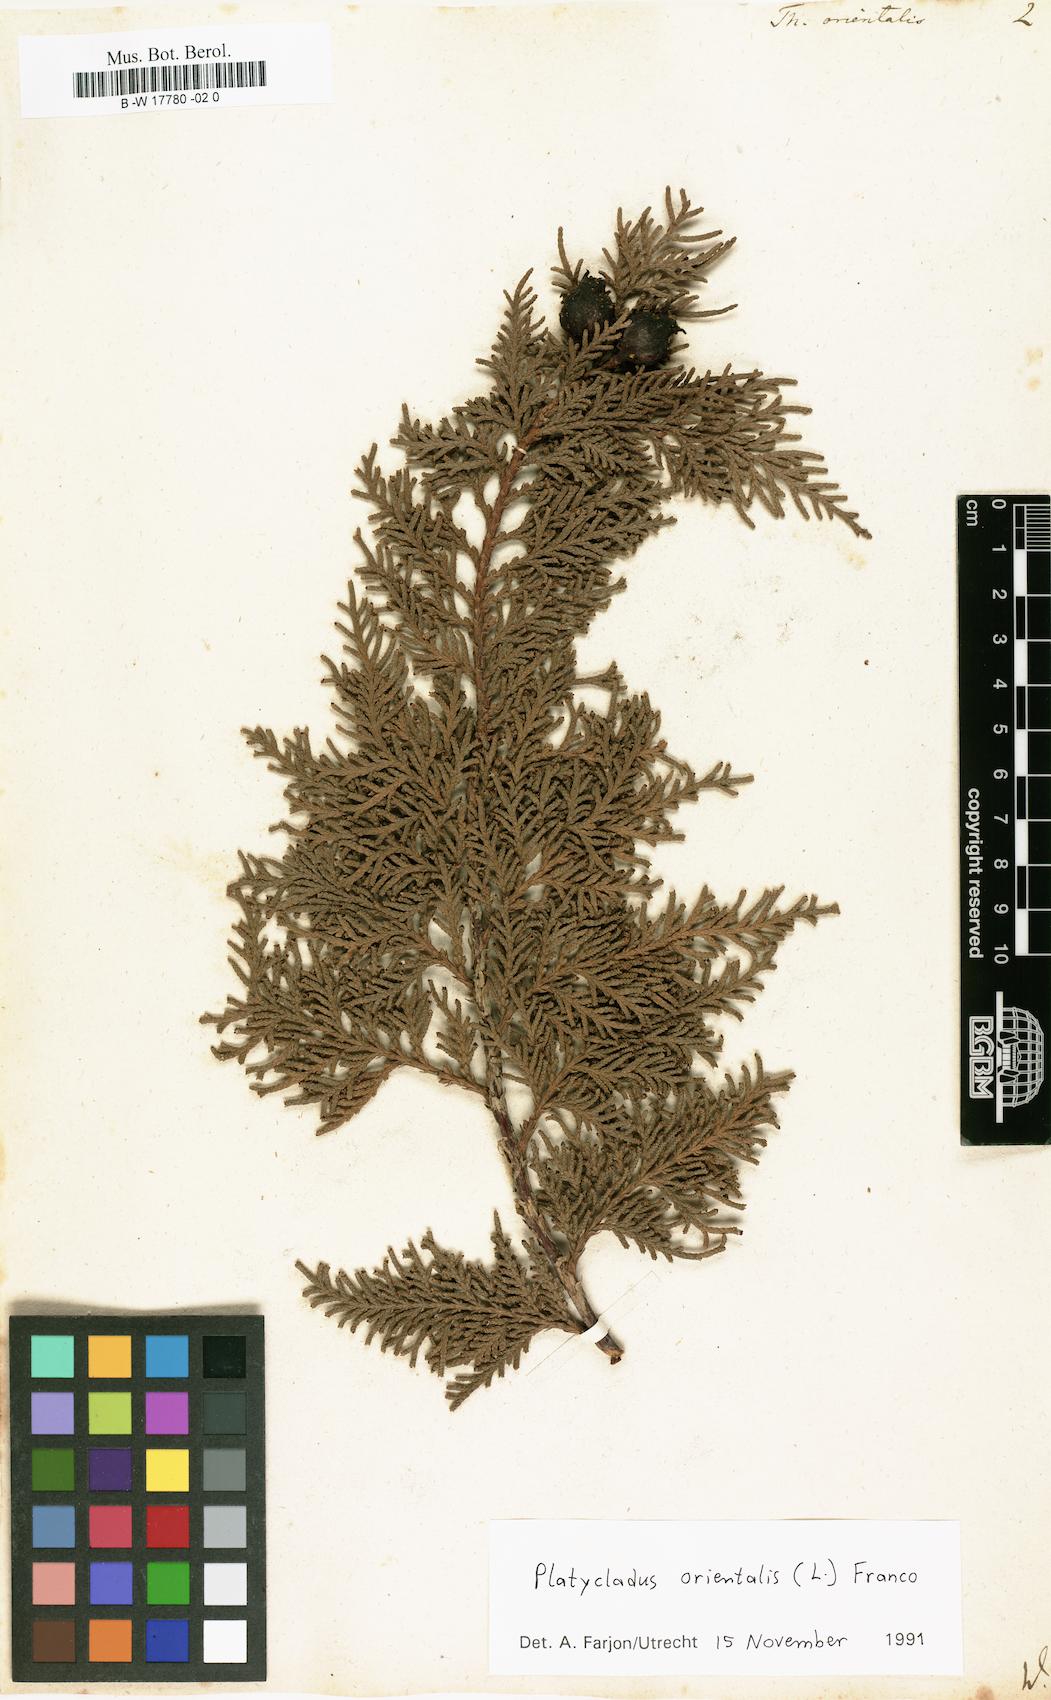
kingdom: Plantae
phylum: Tracheophyta
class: Pinopsida
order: Pinales
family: Cupressaceae
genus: Platycladus
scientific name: Platycladus orientalis
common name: Chinese thuja
